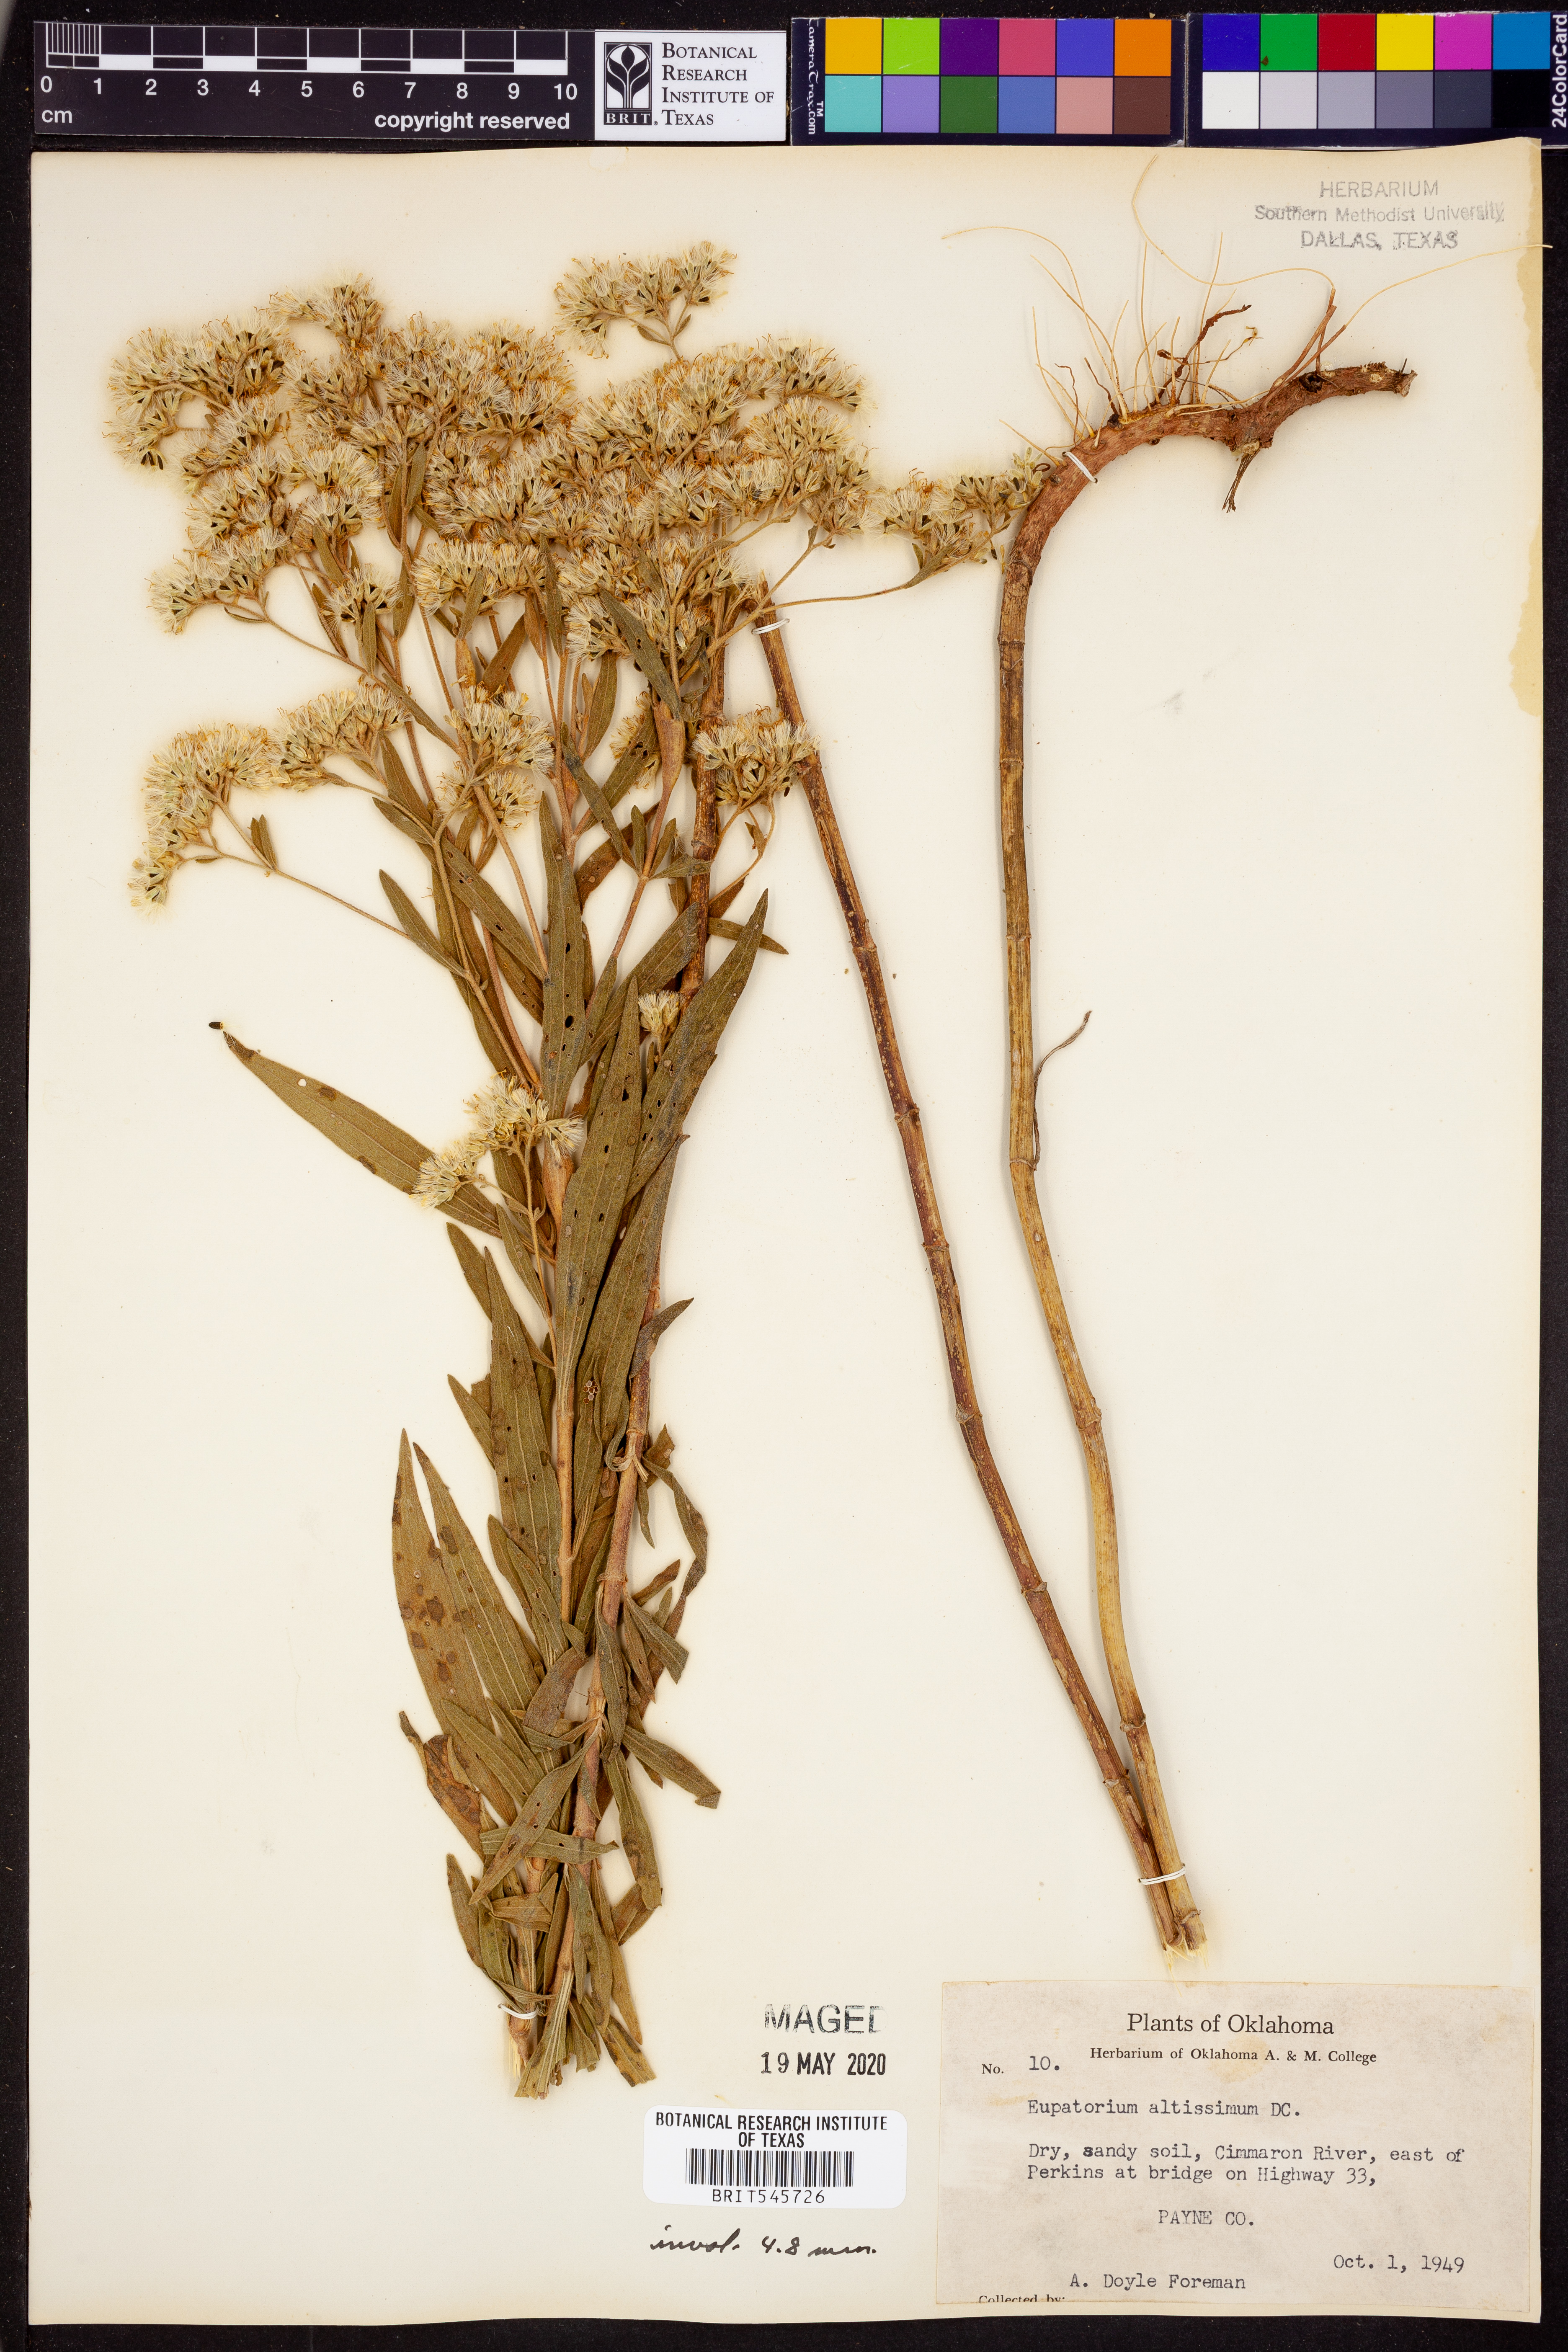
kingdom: Plantae
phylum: Tracheophyta
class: Magnoliopsida
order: Asterales
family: Asteraceae
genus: Eupatorium
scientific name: Eupatorium altissimum
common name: Tall thoroughwort
